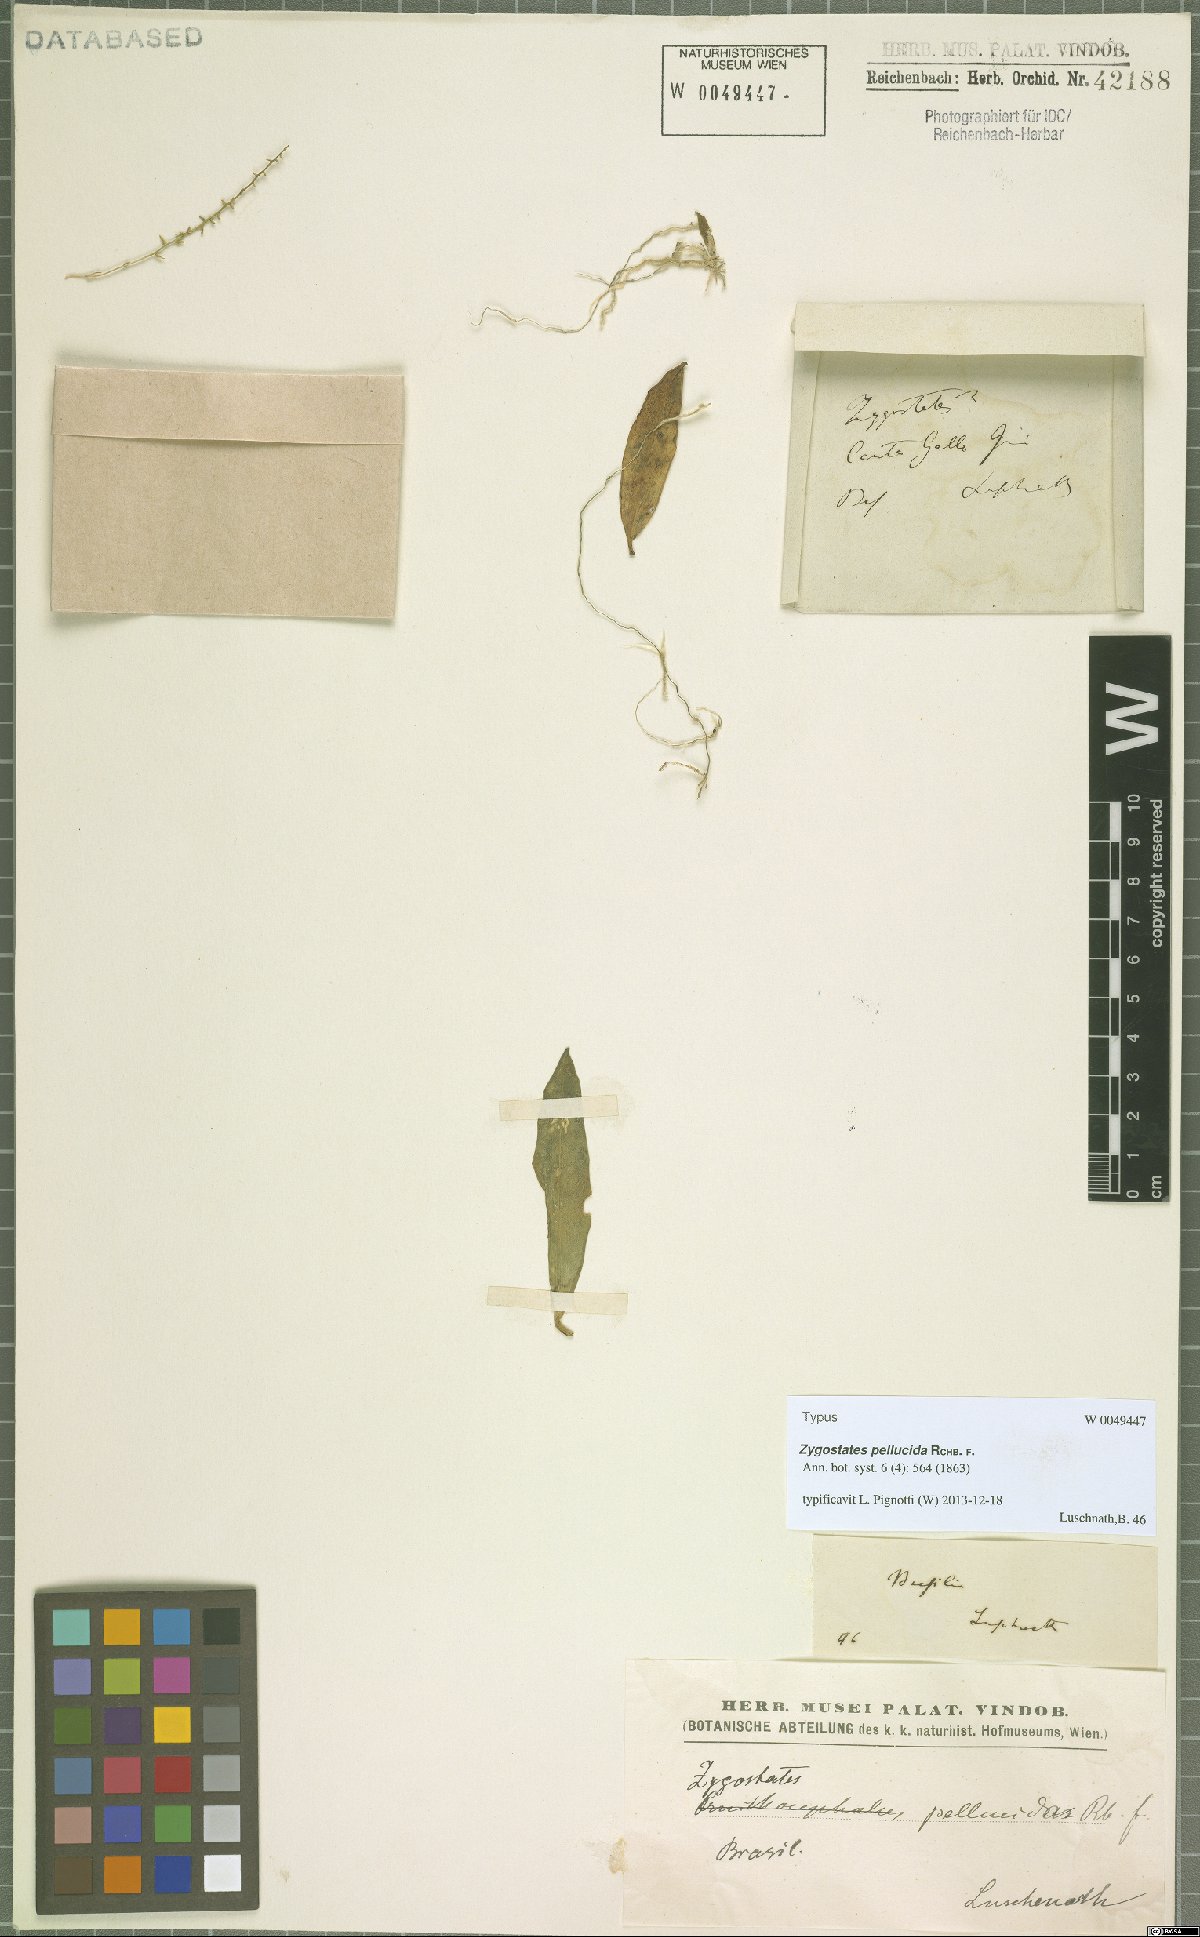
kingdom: Plantae
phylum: Tracheophyta
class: Liliopsida
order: Asparagales
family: Orchidaceae
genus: Zygostates
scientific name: Zygostates pellucida
